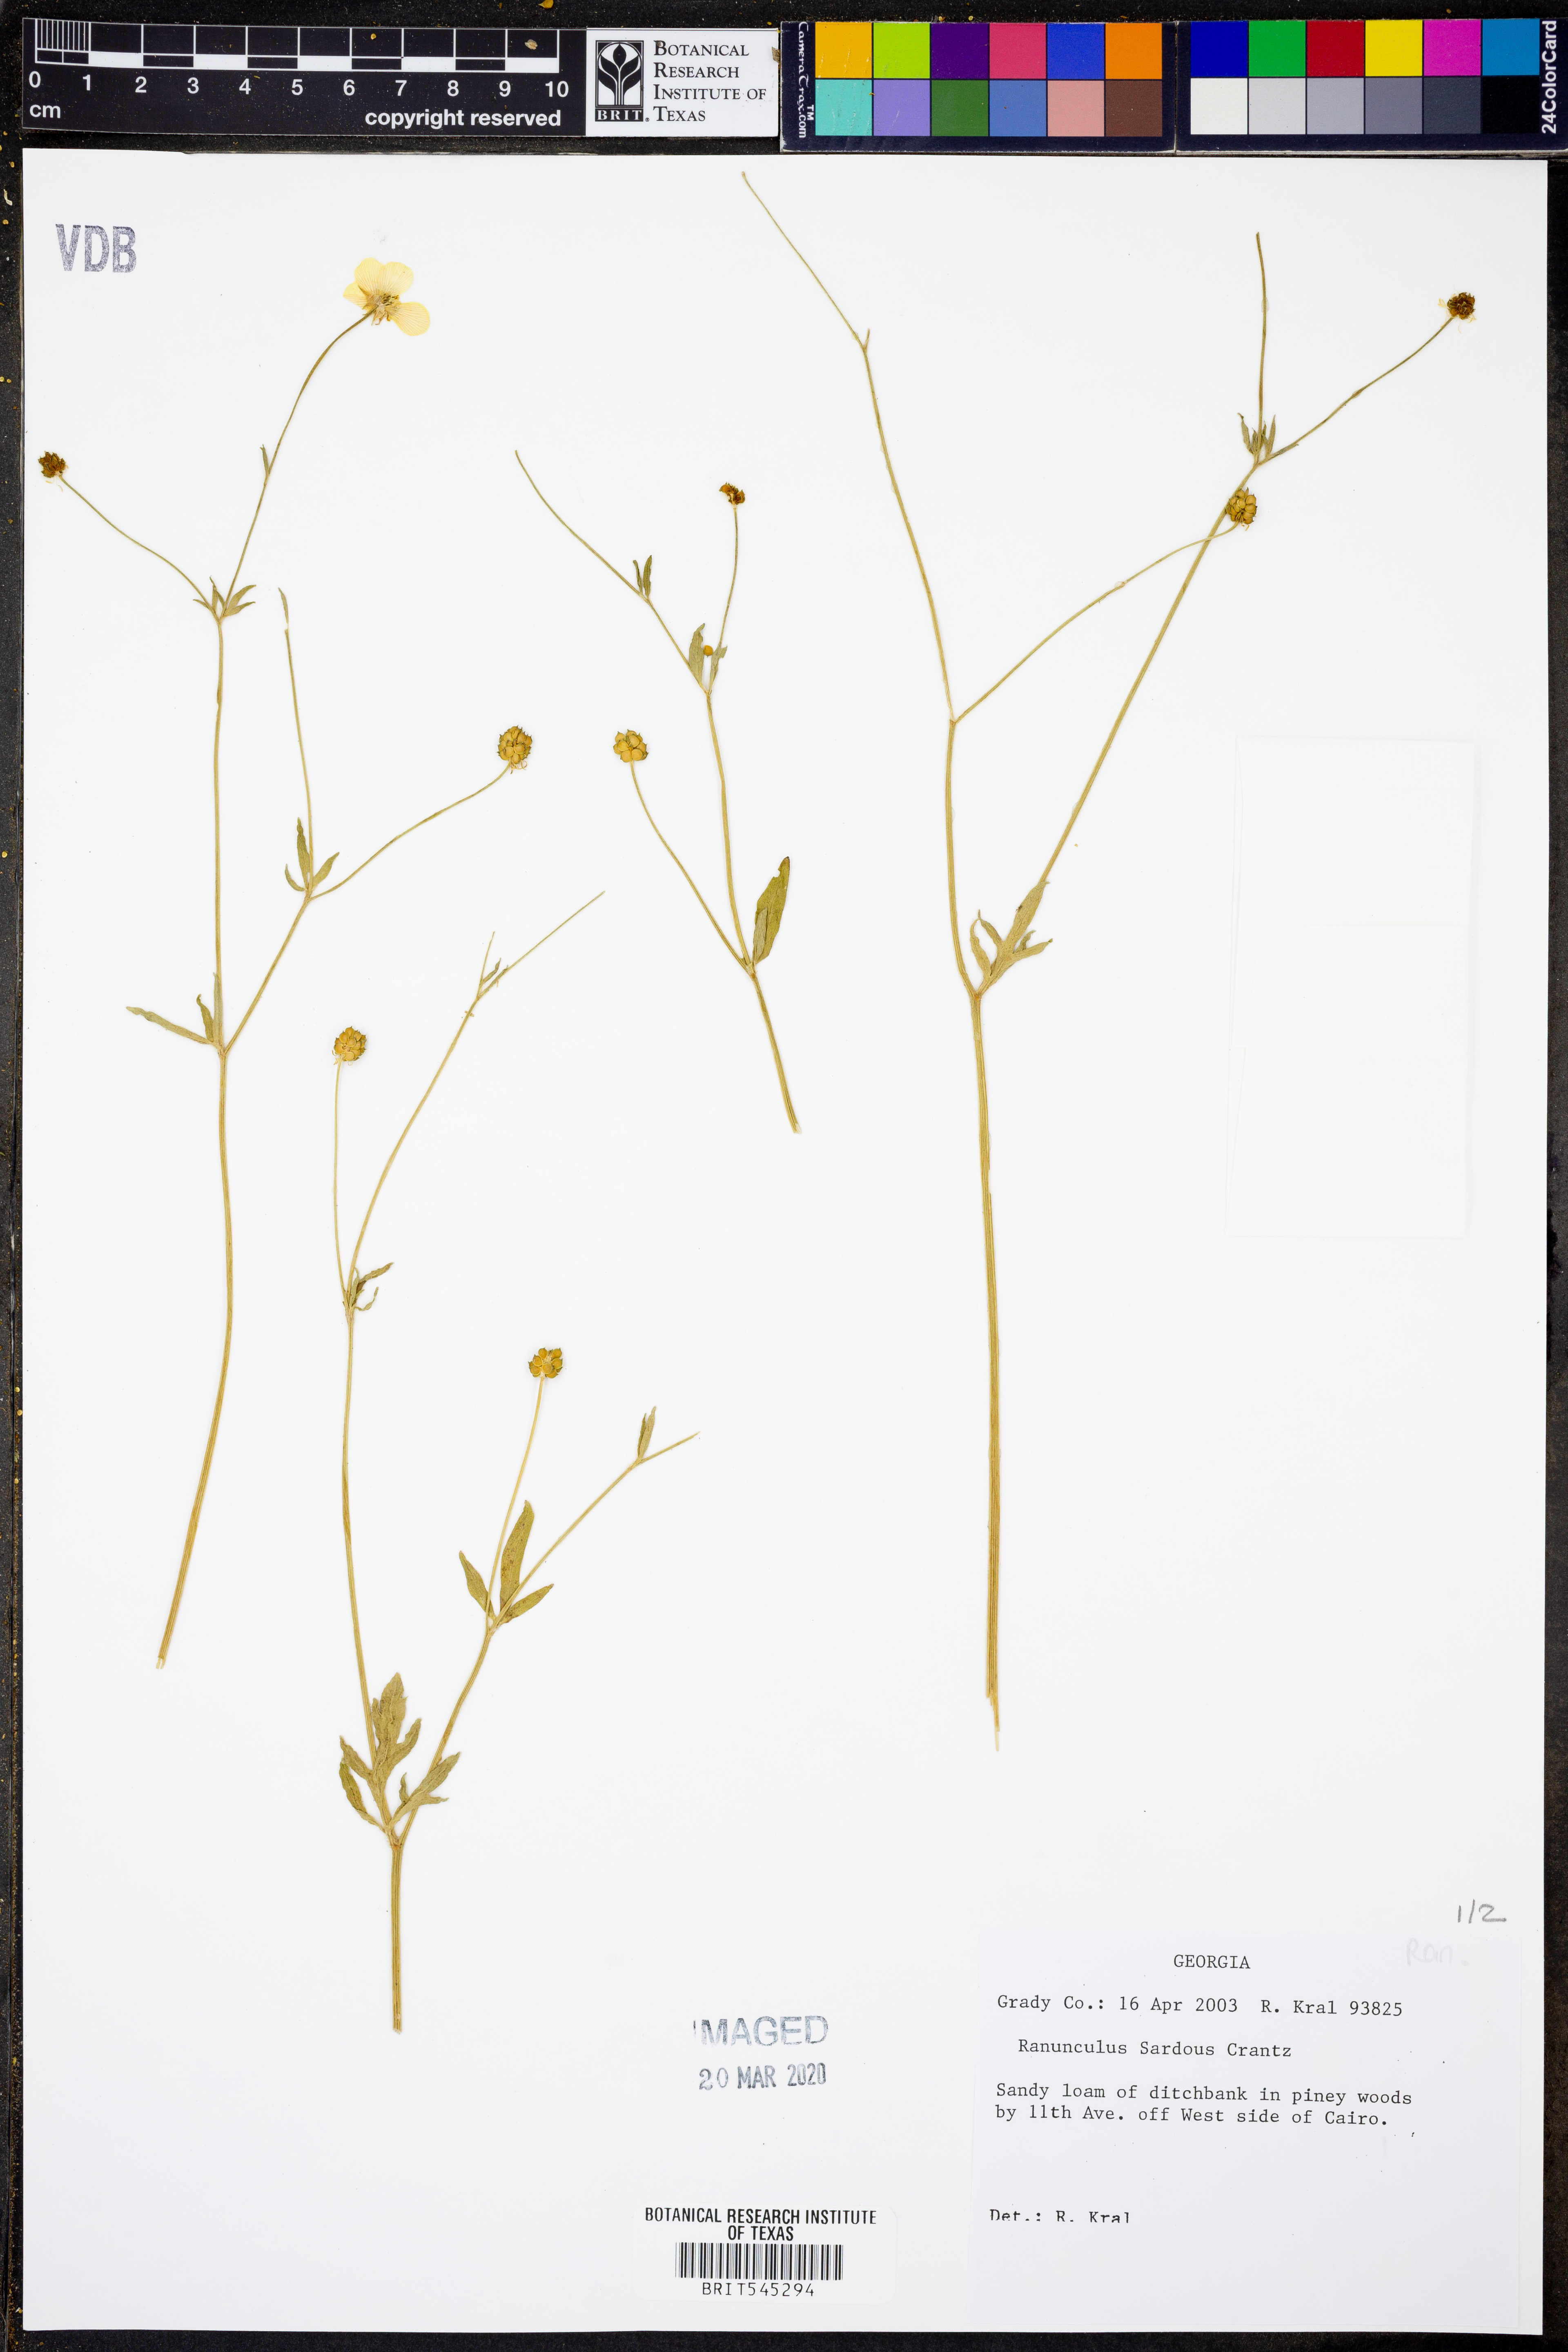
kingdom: Plantae
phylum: Tracheophyta
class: Magnoliopsida
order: Ranunculales
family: Ranunculaceae
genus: Ranunculus
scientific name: Ranunculus sardous
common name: Hairy buttercup
